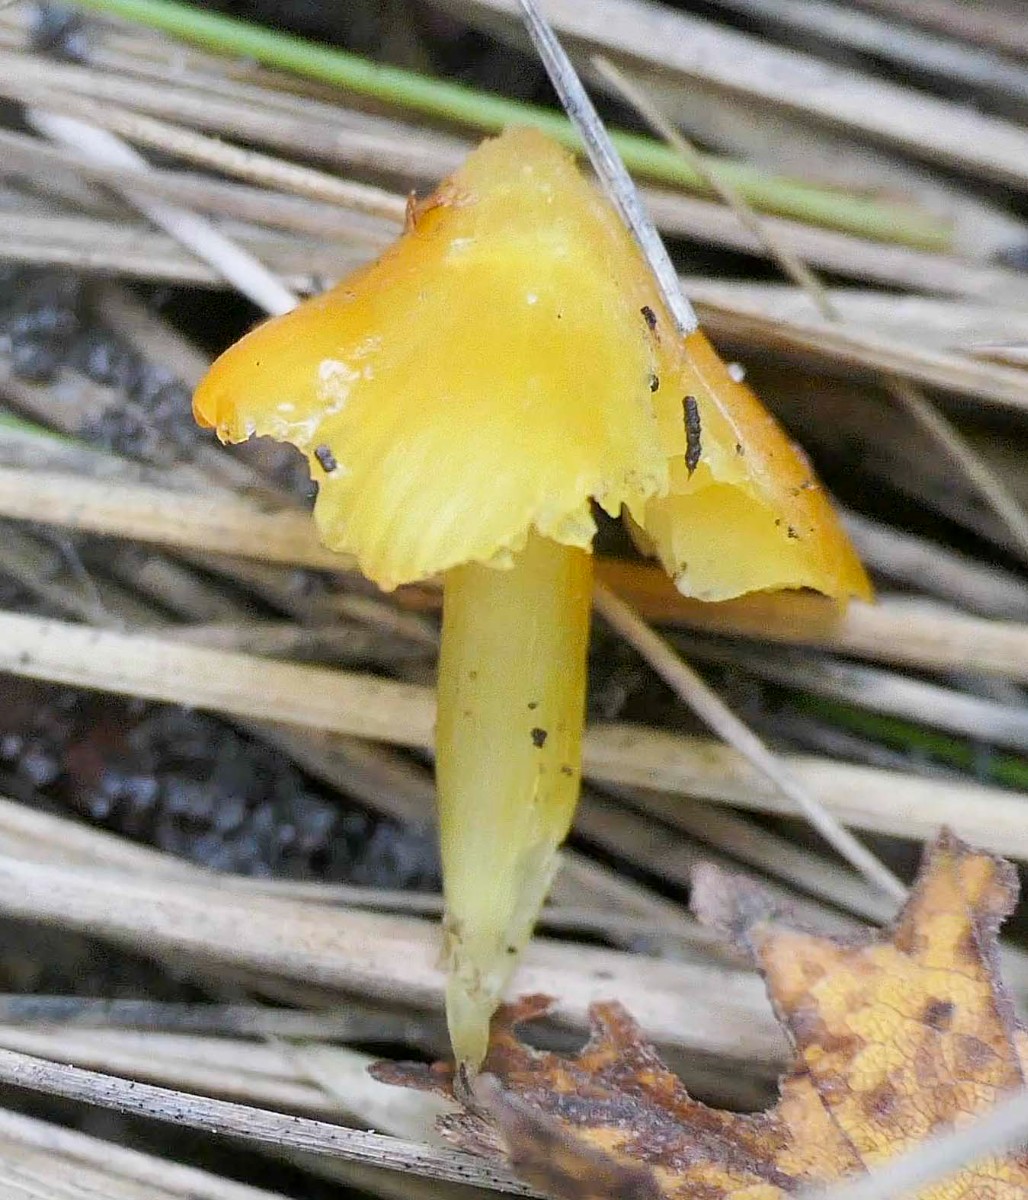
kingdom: Fungi
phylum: Basidiomycota
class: Agaricomycetes
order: Agaricales
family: Hygrophoraceae
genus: Hygrocybe
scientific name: Hygrocybe
